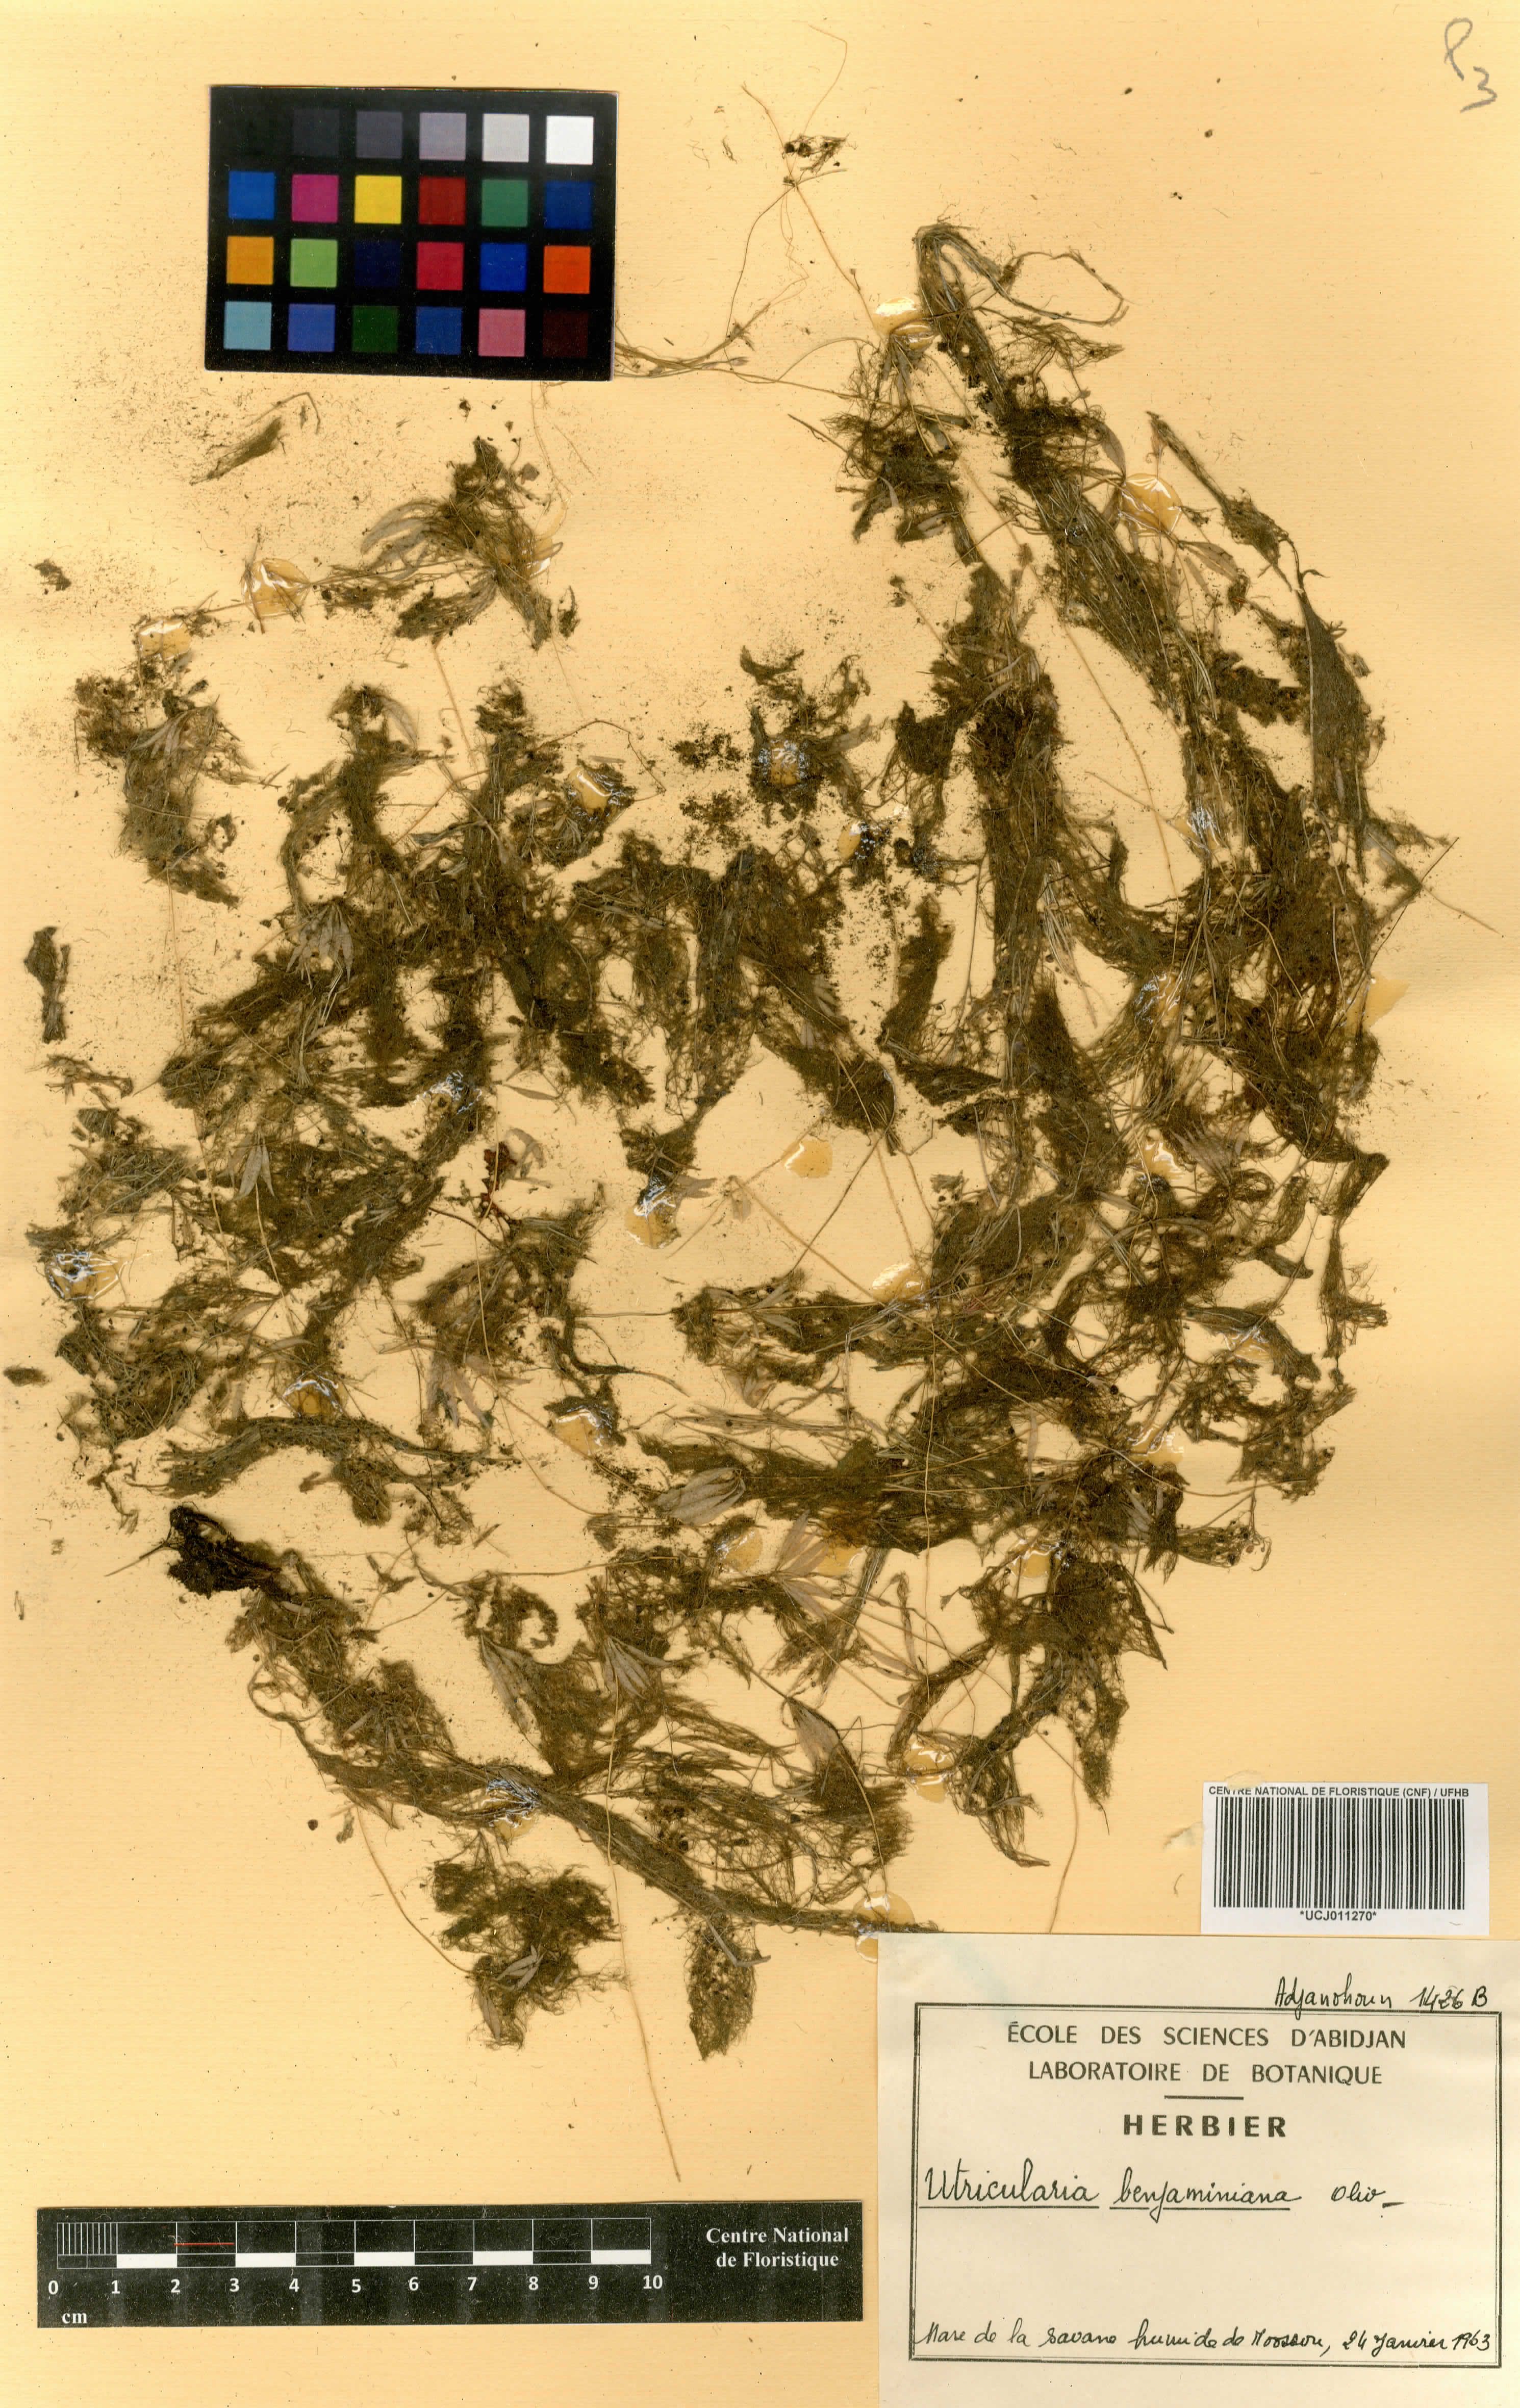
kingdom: Plantae
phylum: Tracheophyta
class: Magnoliopsida
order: Lamiales
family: Lentibulariaceae
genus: Utricularia
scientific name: Utricularia foliosa
